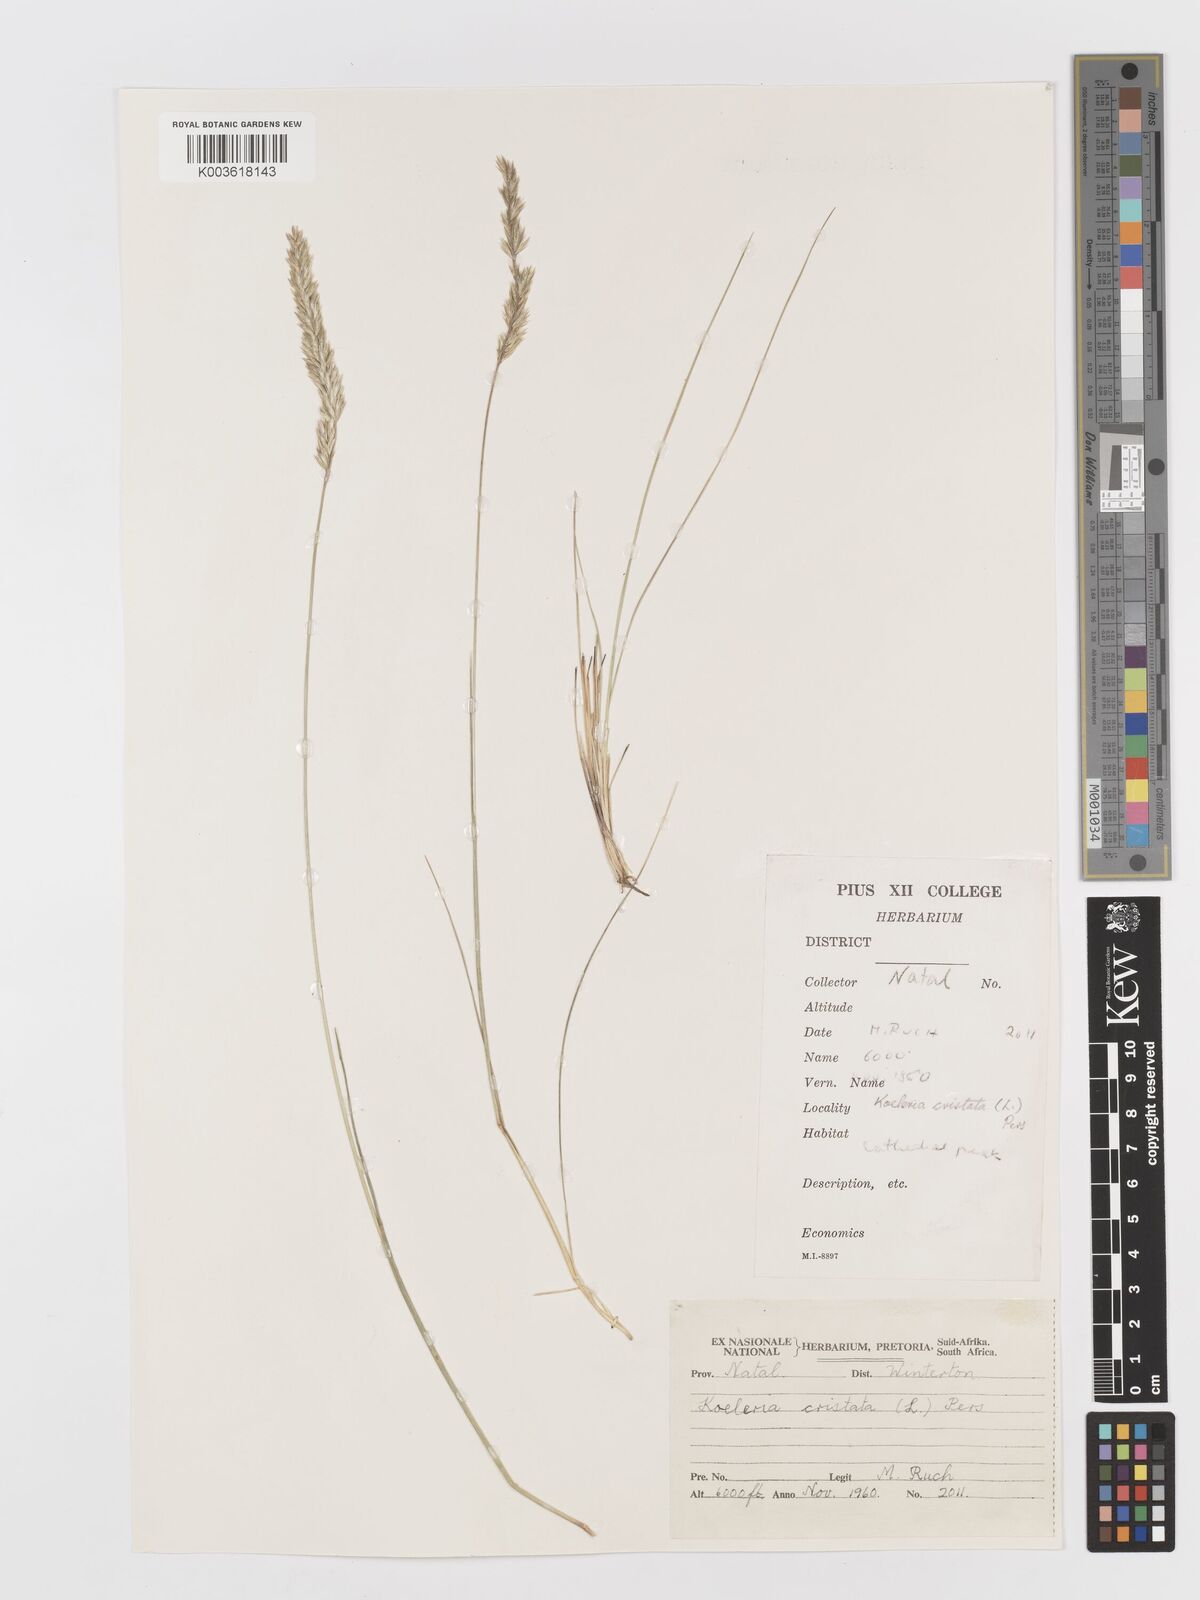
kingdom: Plantae
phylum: Tracheophyta
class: Liliopsida
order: Poales
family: Poaceae
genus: Koeleria
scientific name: Koeleria capensis
